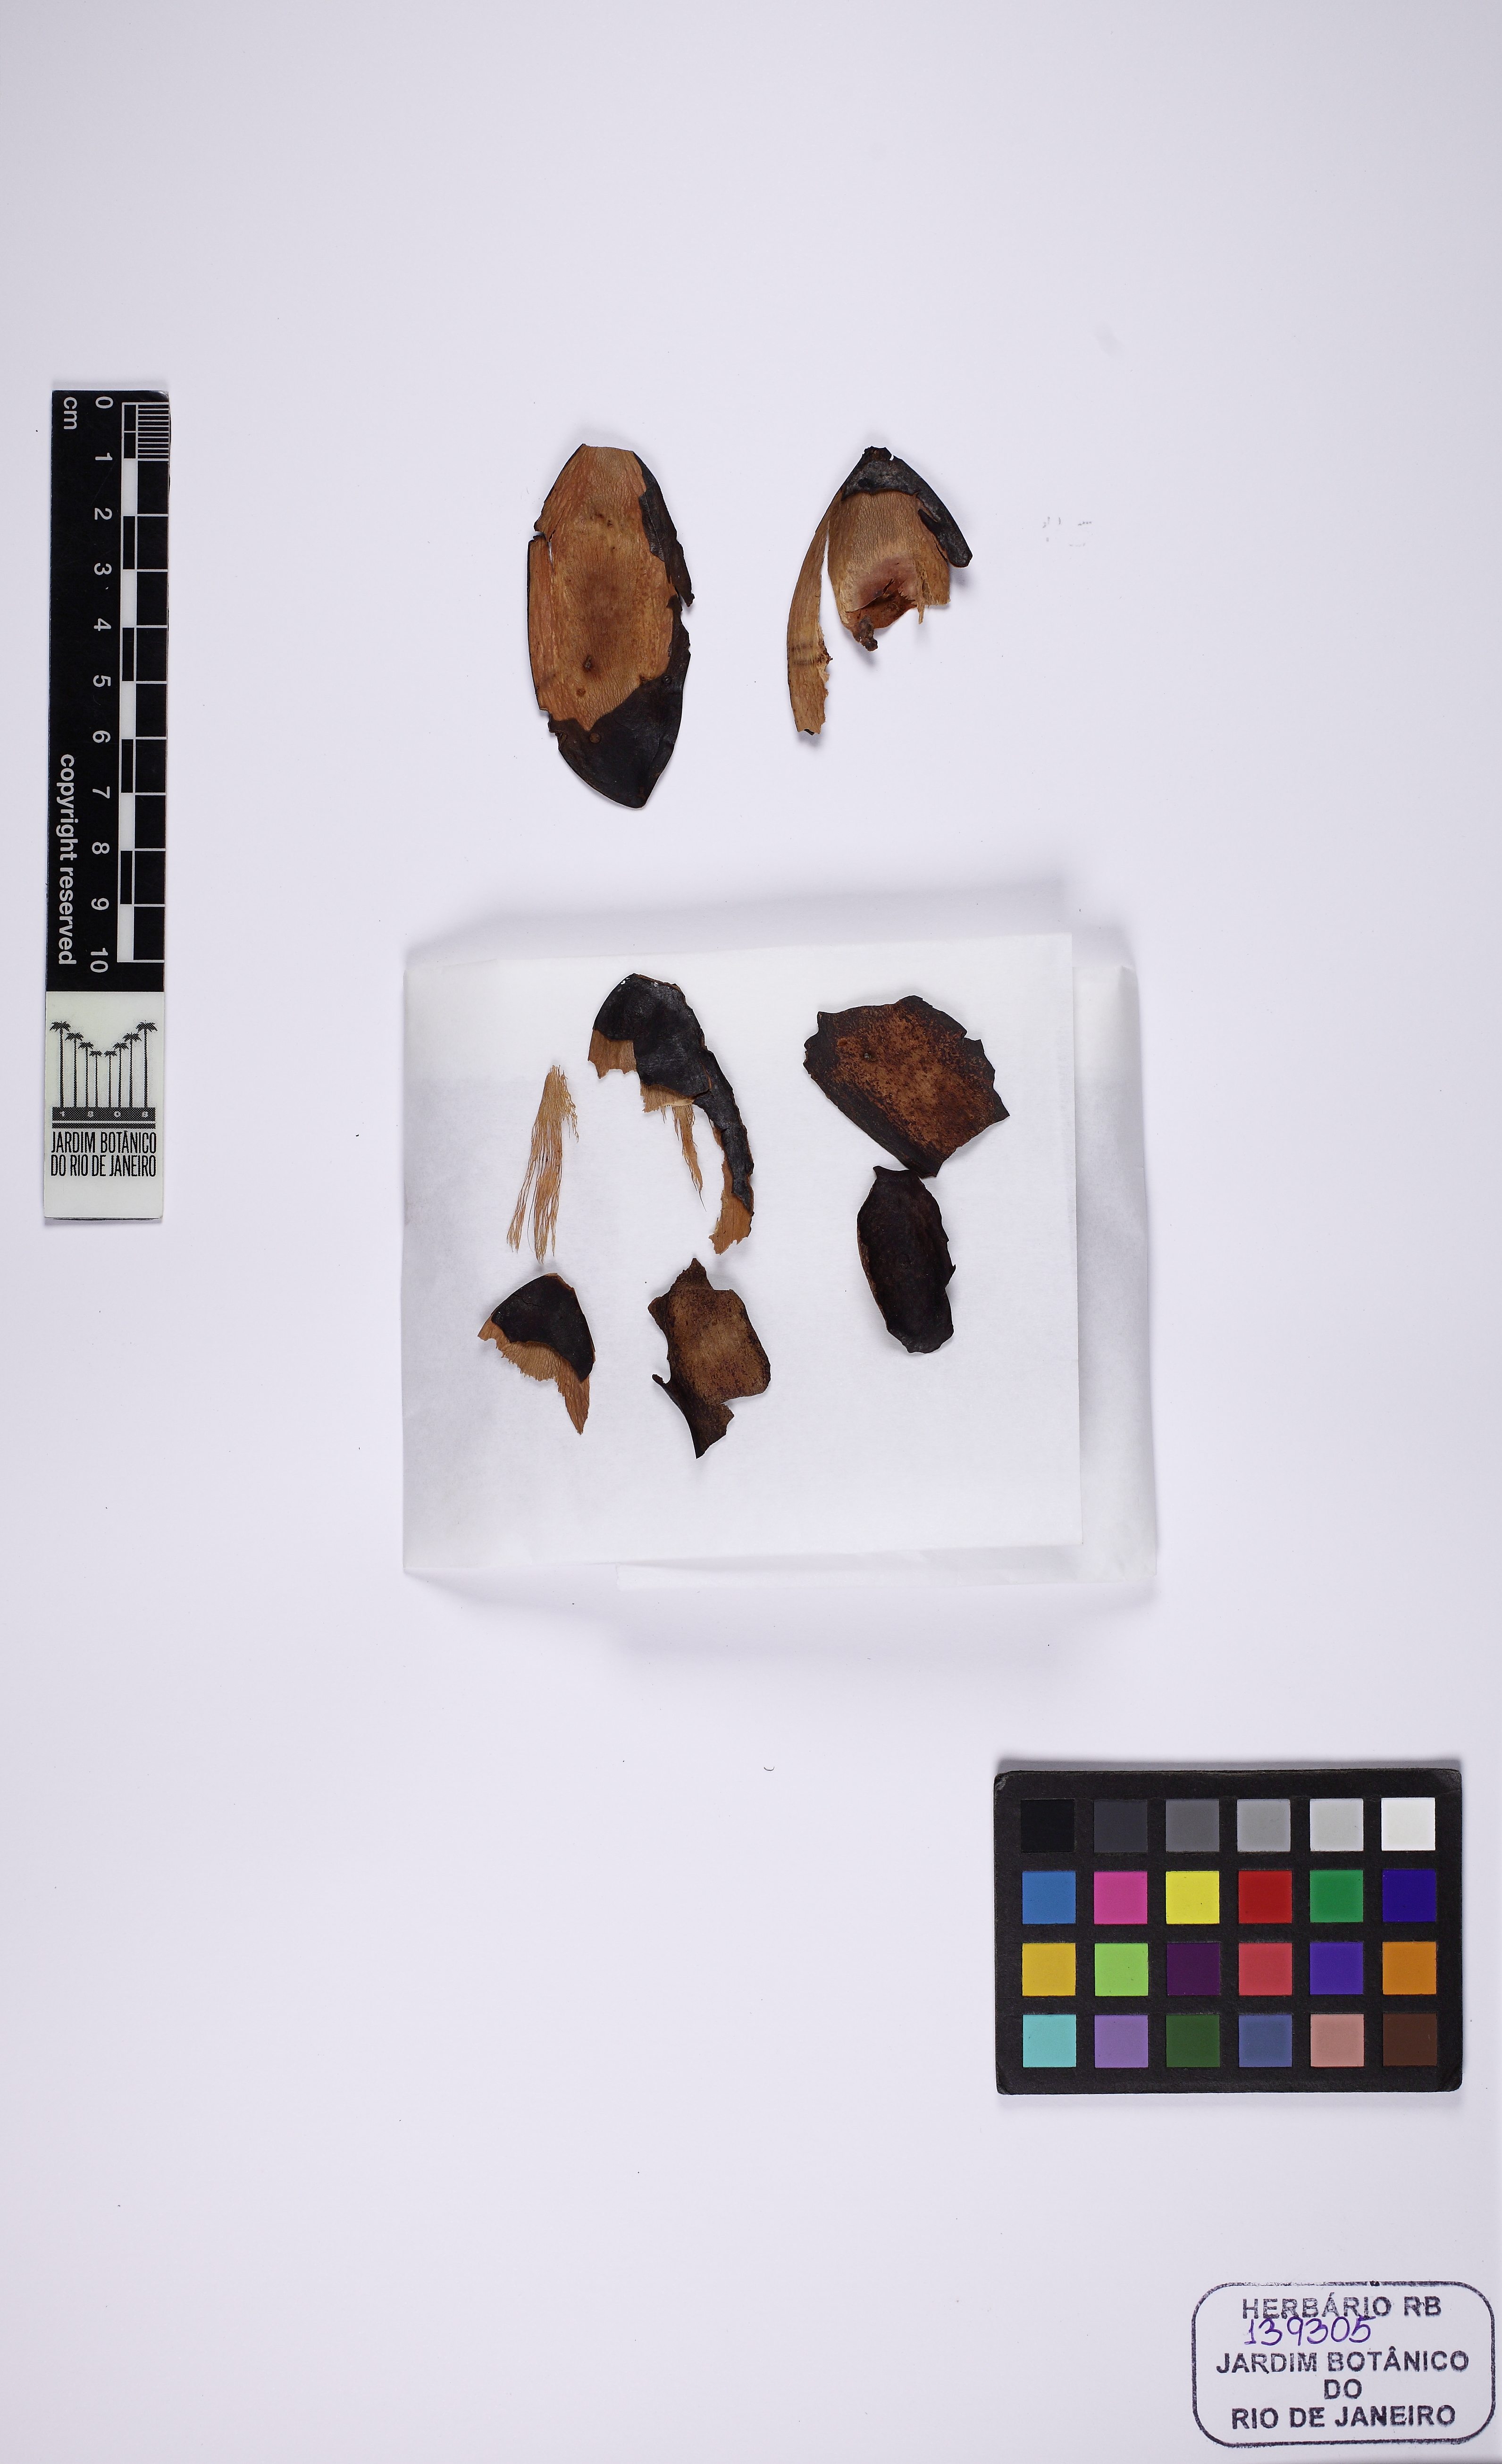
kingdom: Plantae
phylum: Tracheophyta
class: Magnoliopsida
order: Fabales
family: Fabaceae
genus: Tachigali
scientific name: Tachigali denudata
